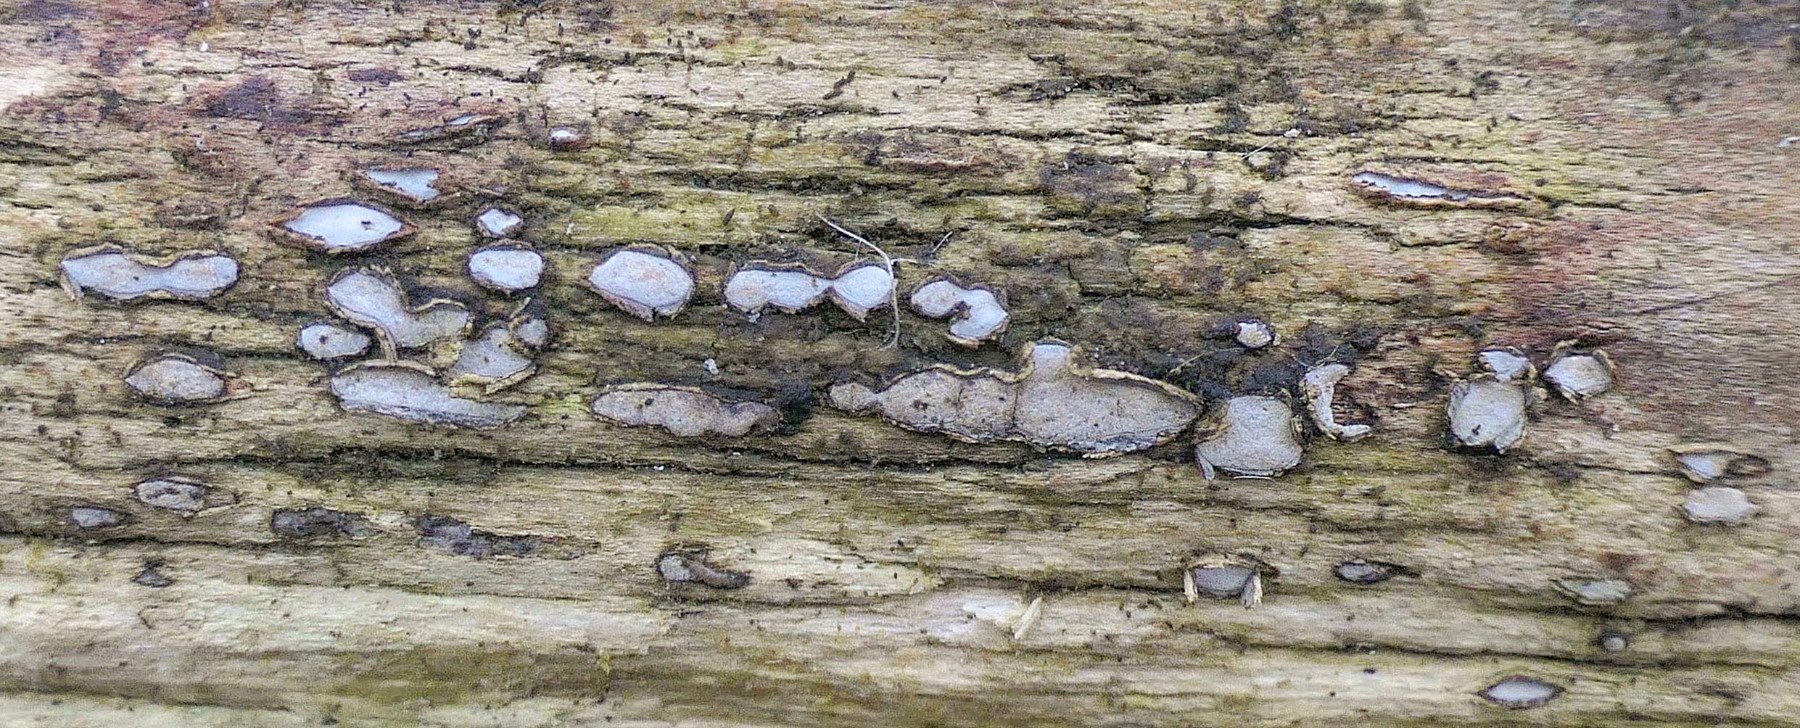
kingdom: Fungi
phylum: Ascomycota
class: Leotiomycetes
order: Chaetomellales
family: Marthamycetaceae
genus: Propolis
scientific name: Propolis farinosa
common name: almindelig vedsprængerskive
